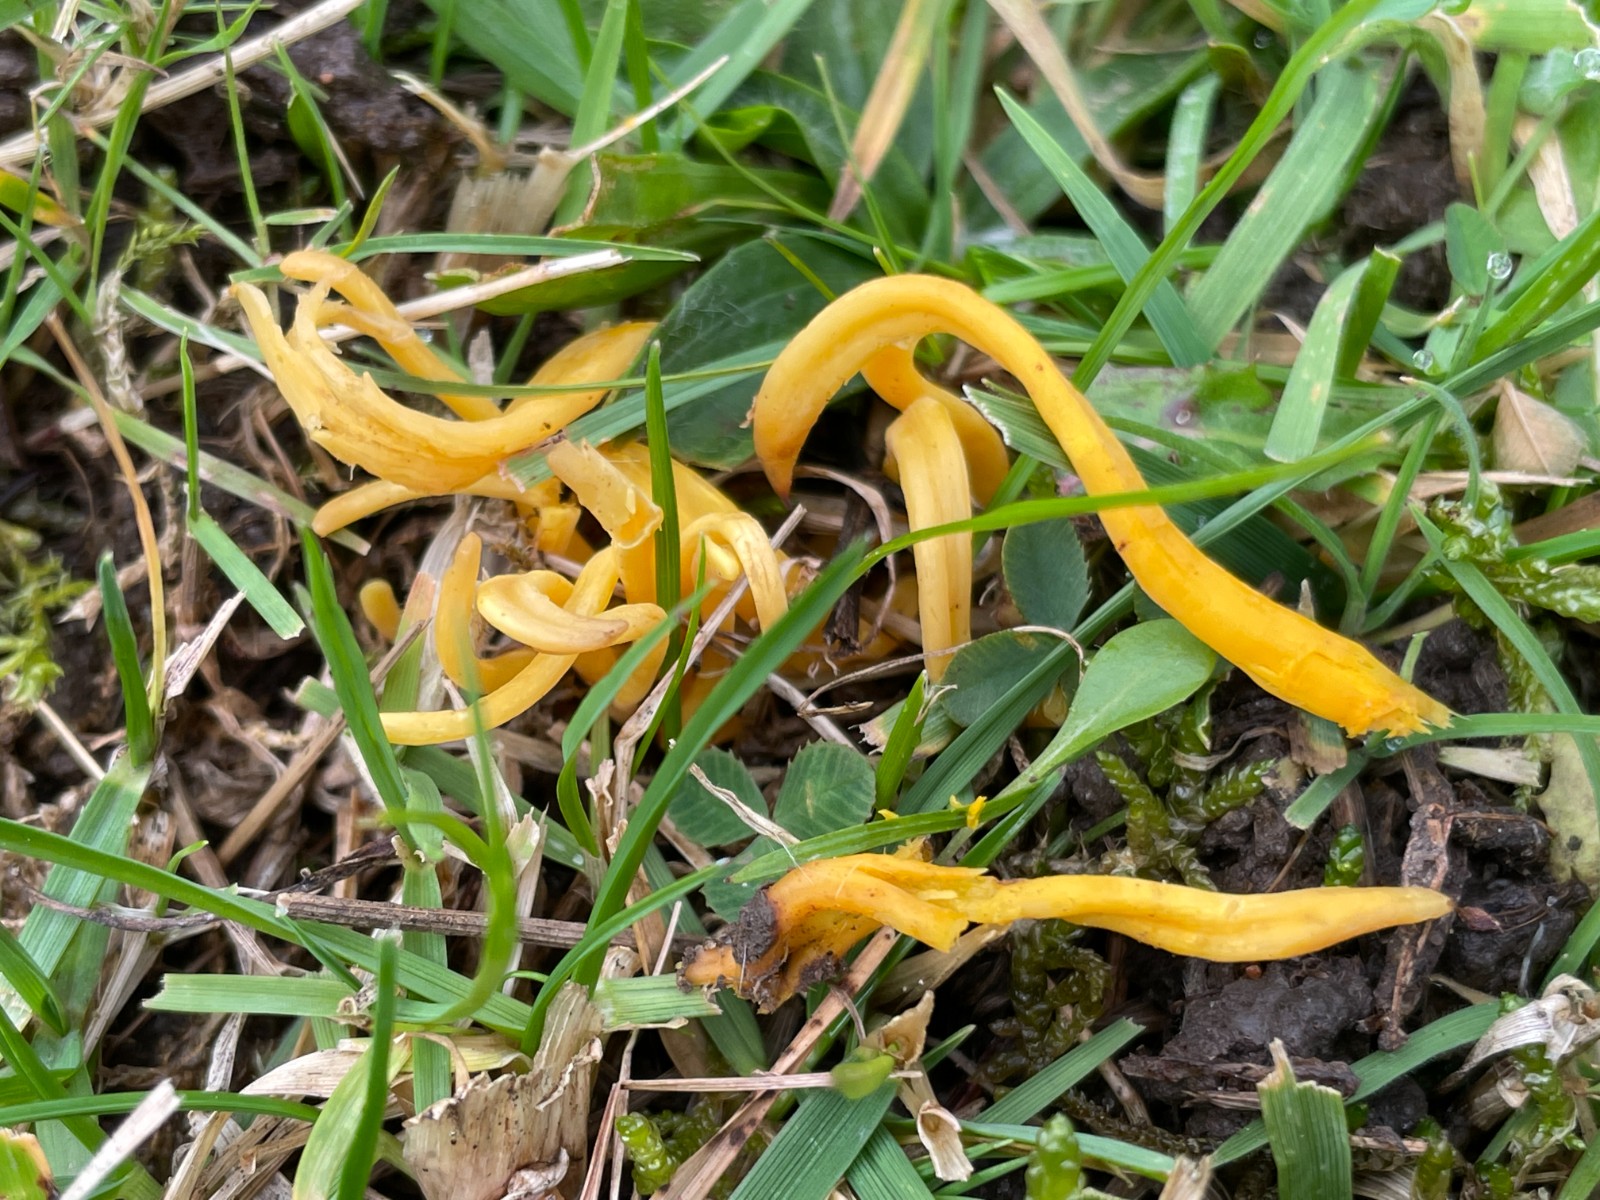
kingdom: Fungi
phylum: Basidiomycota
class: Agaricomycetes
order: Agaricales
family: Clavariaceae
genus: Clavulinopsis
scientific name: Clavulinopsis
